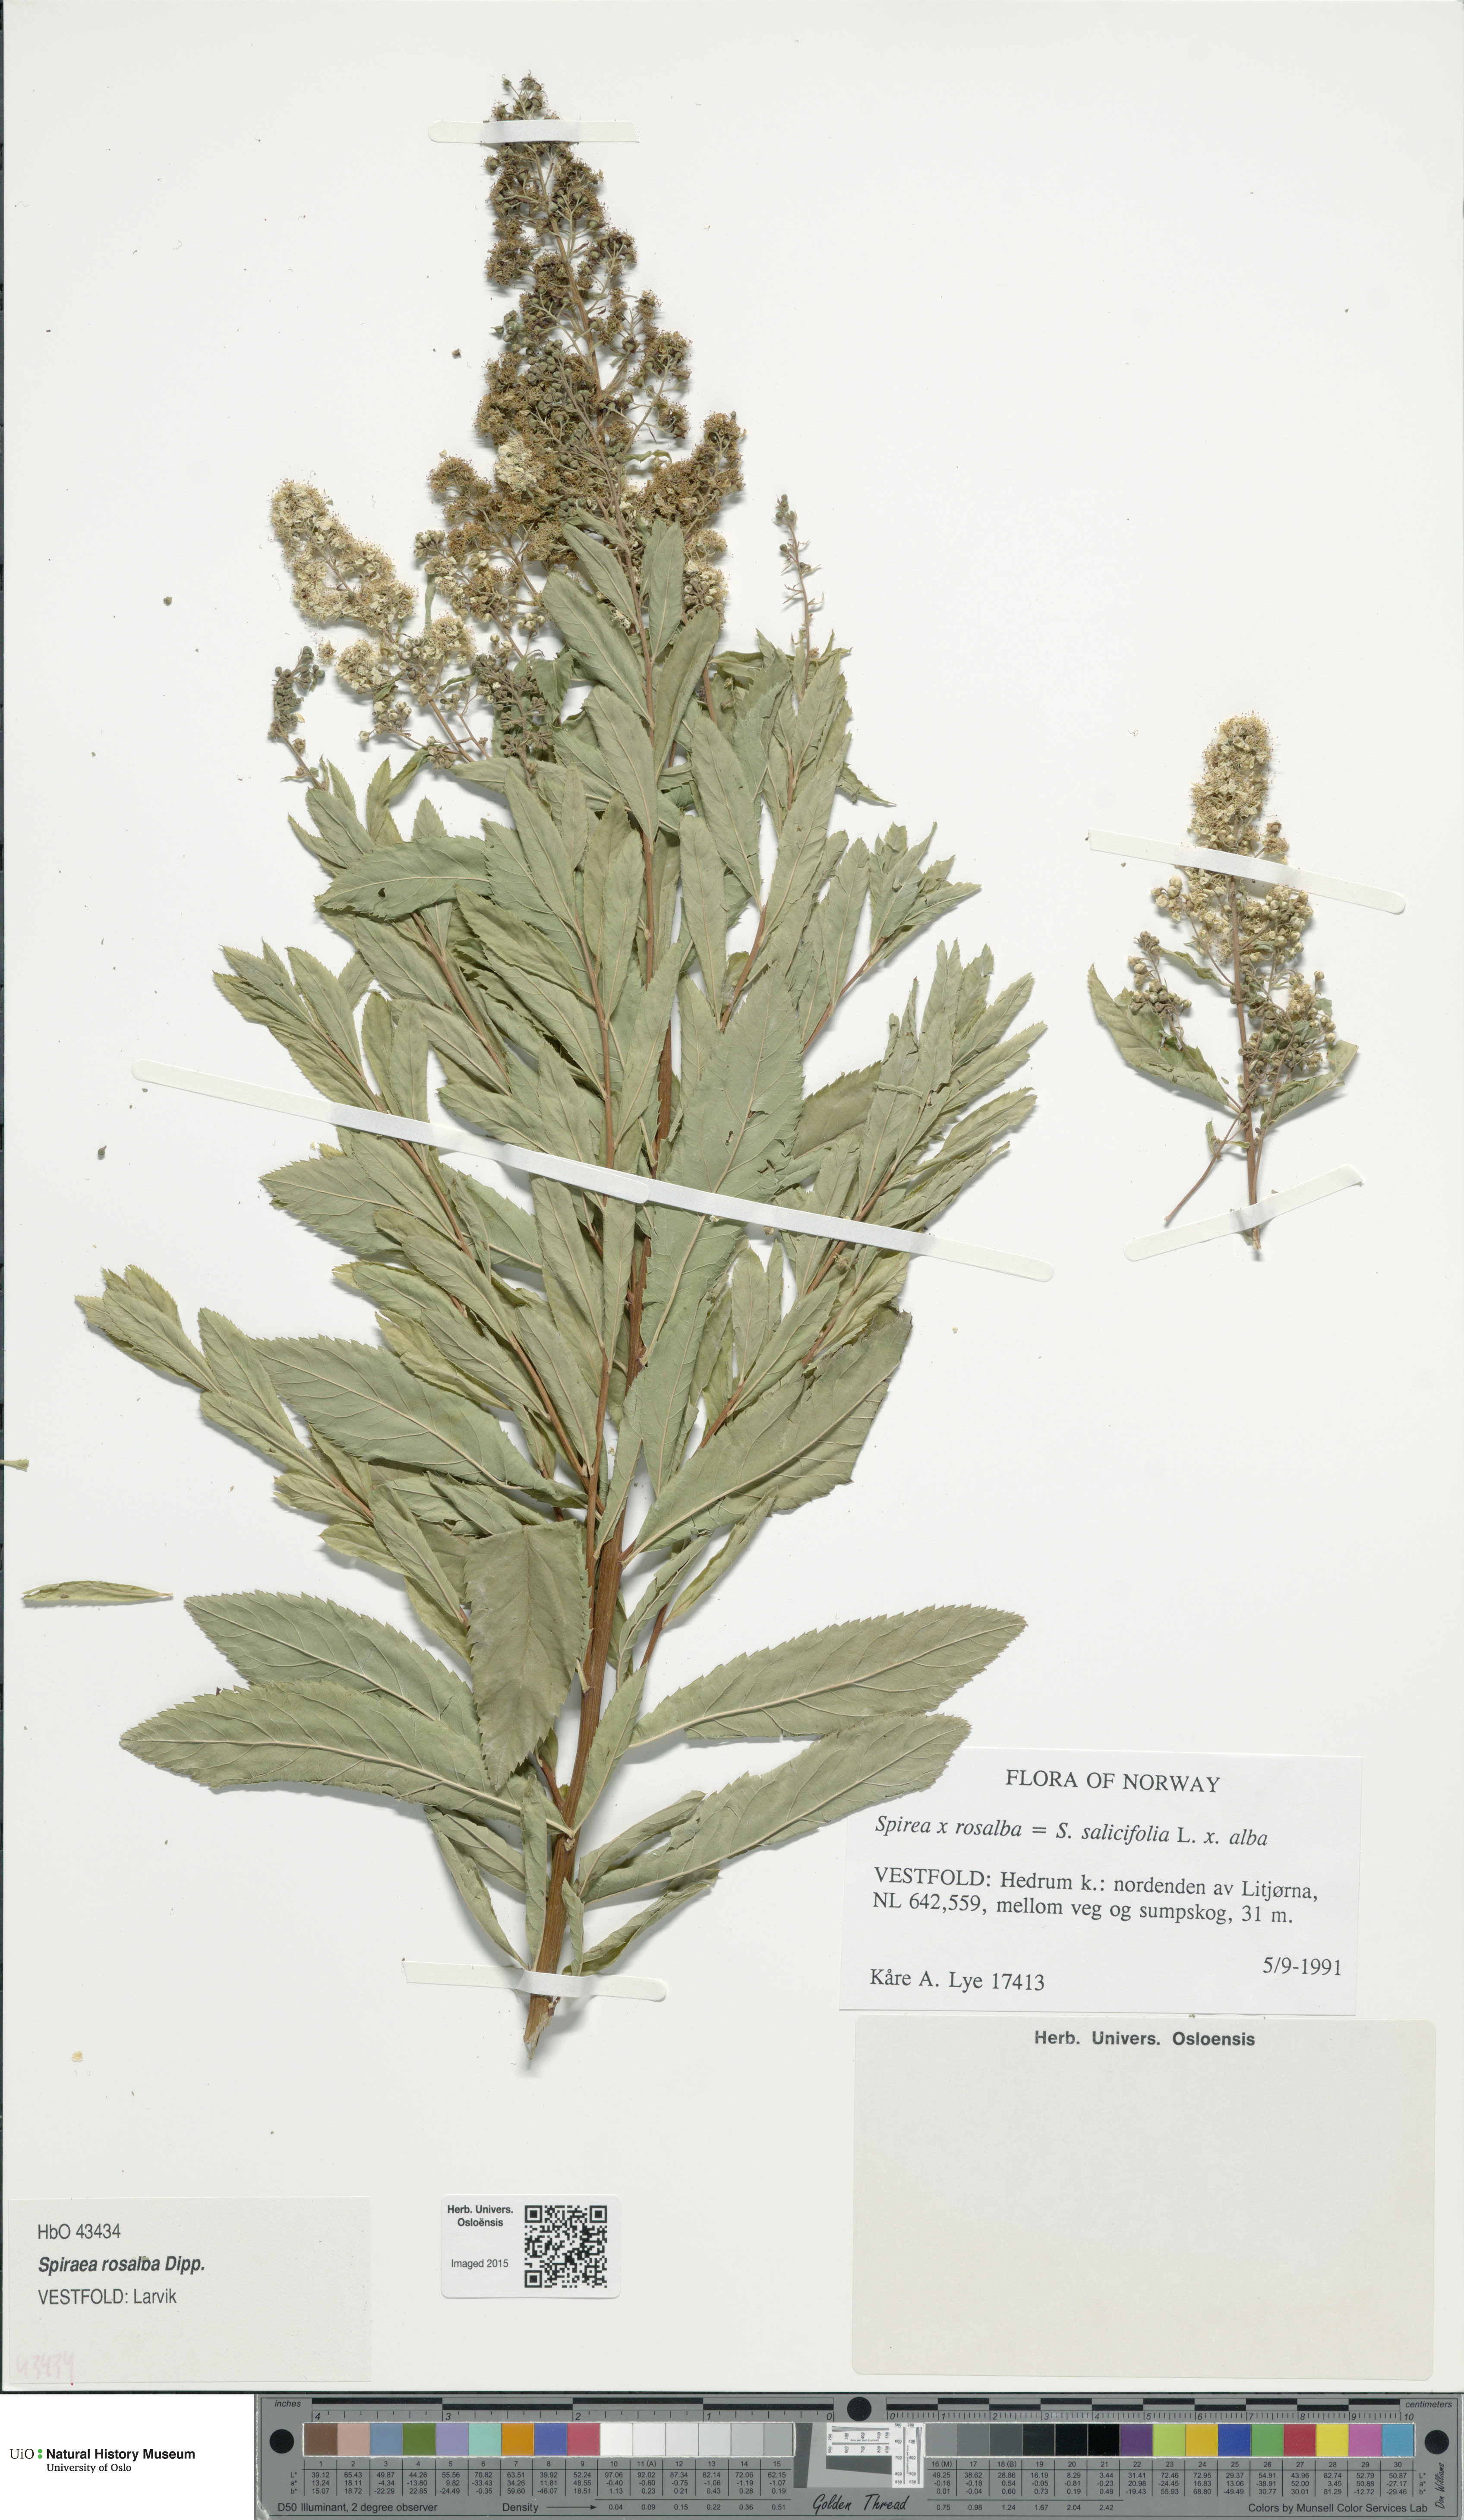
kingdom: Plantae
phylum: Tracheophyta
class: Magnoliopsida
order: Rosales
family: Rosaceae
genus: Spiraea
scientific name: Spiraea rosalba
